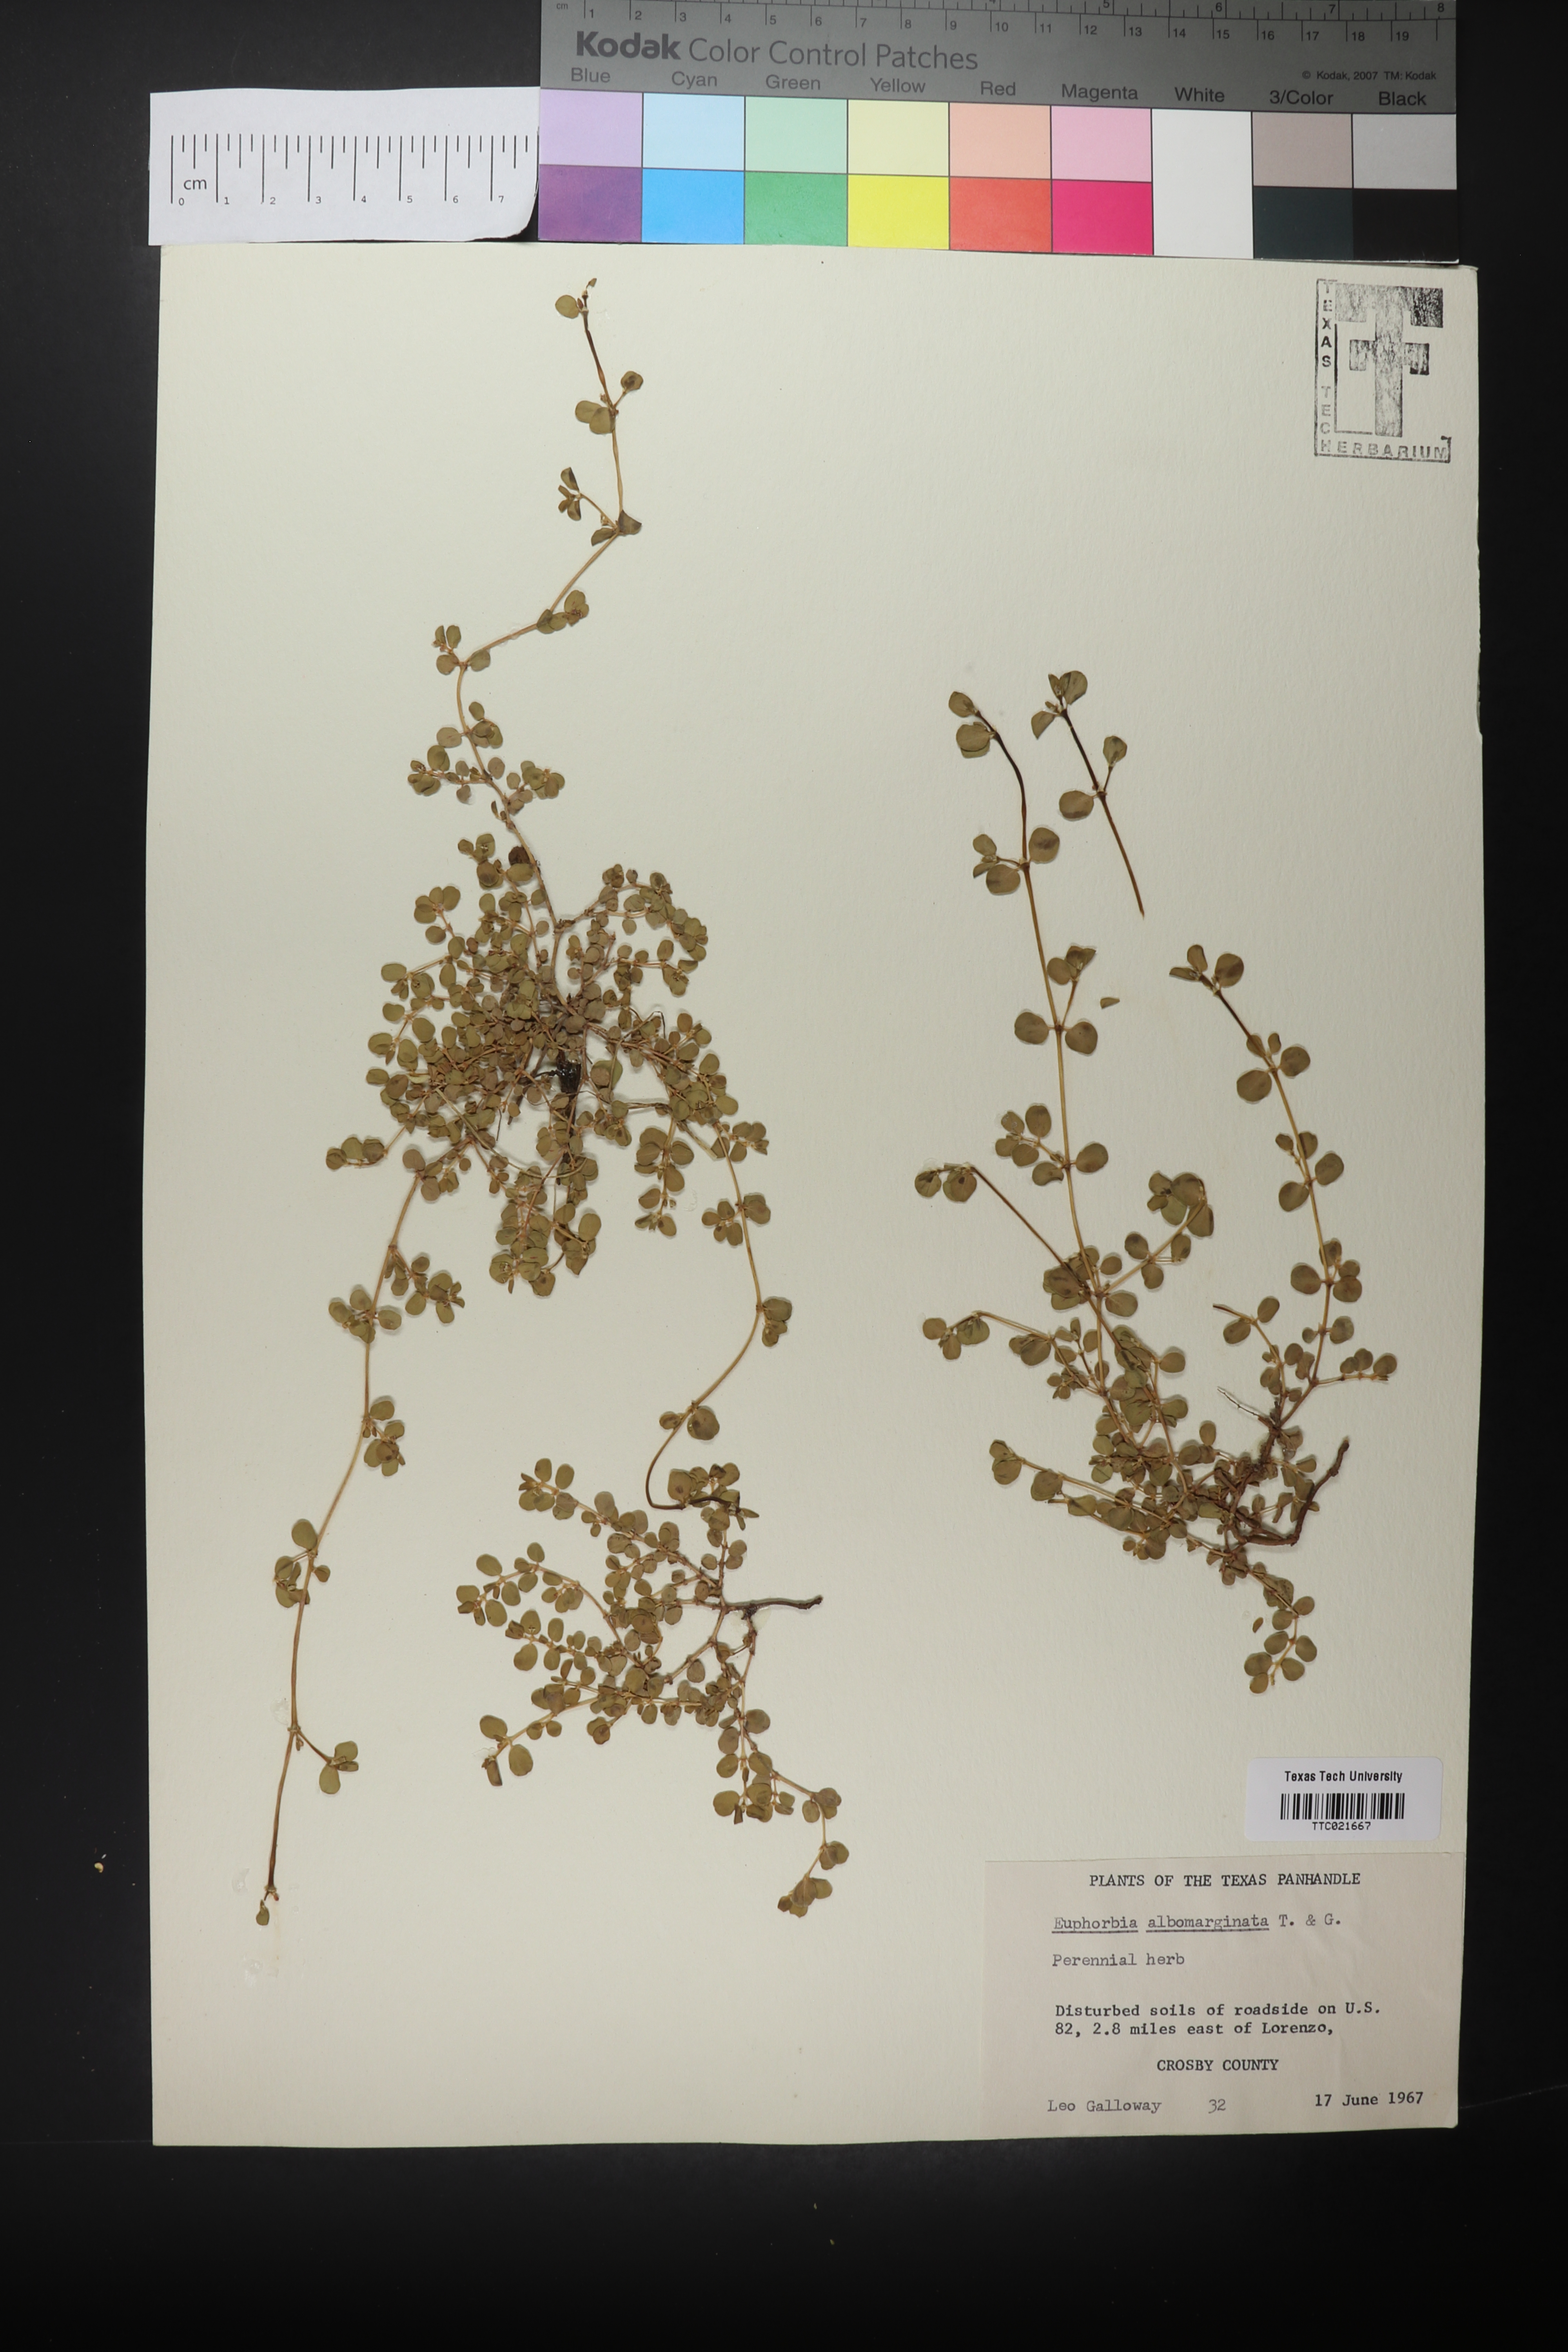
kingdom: Plantae
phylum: Tracheophyta
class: Magnoliopsida
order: Malpighiales
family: Euphorbiaceae
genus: Euphorbia
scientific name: Euphorbia albomarginata
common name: Whitemargin sandmat
